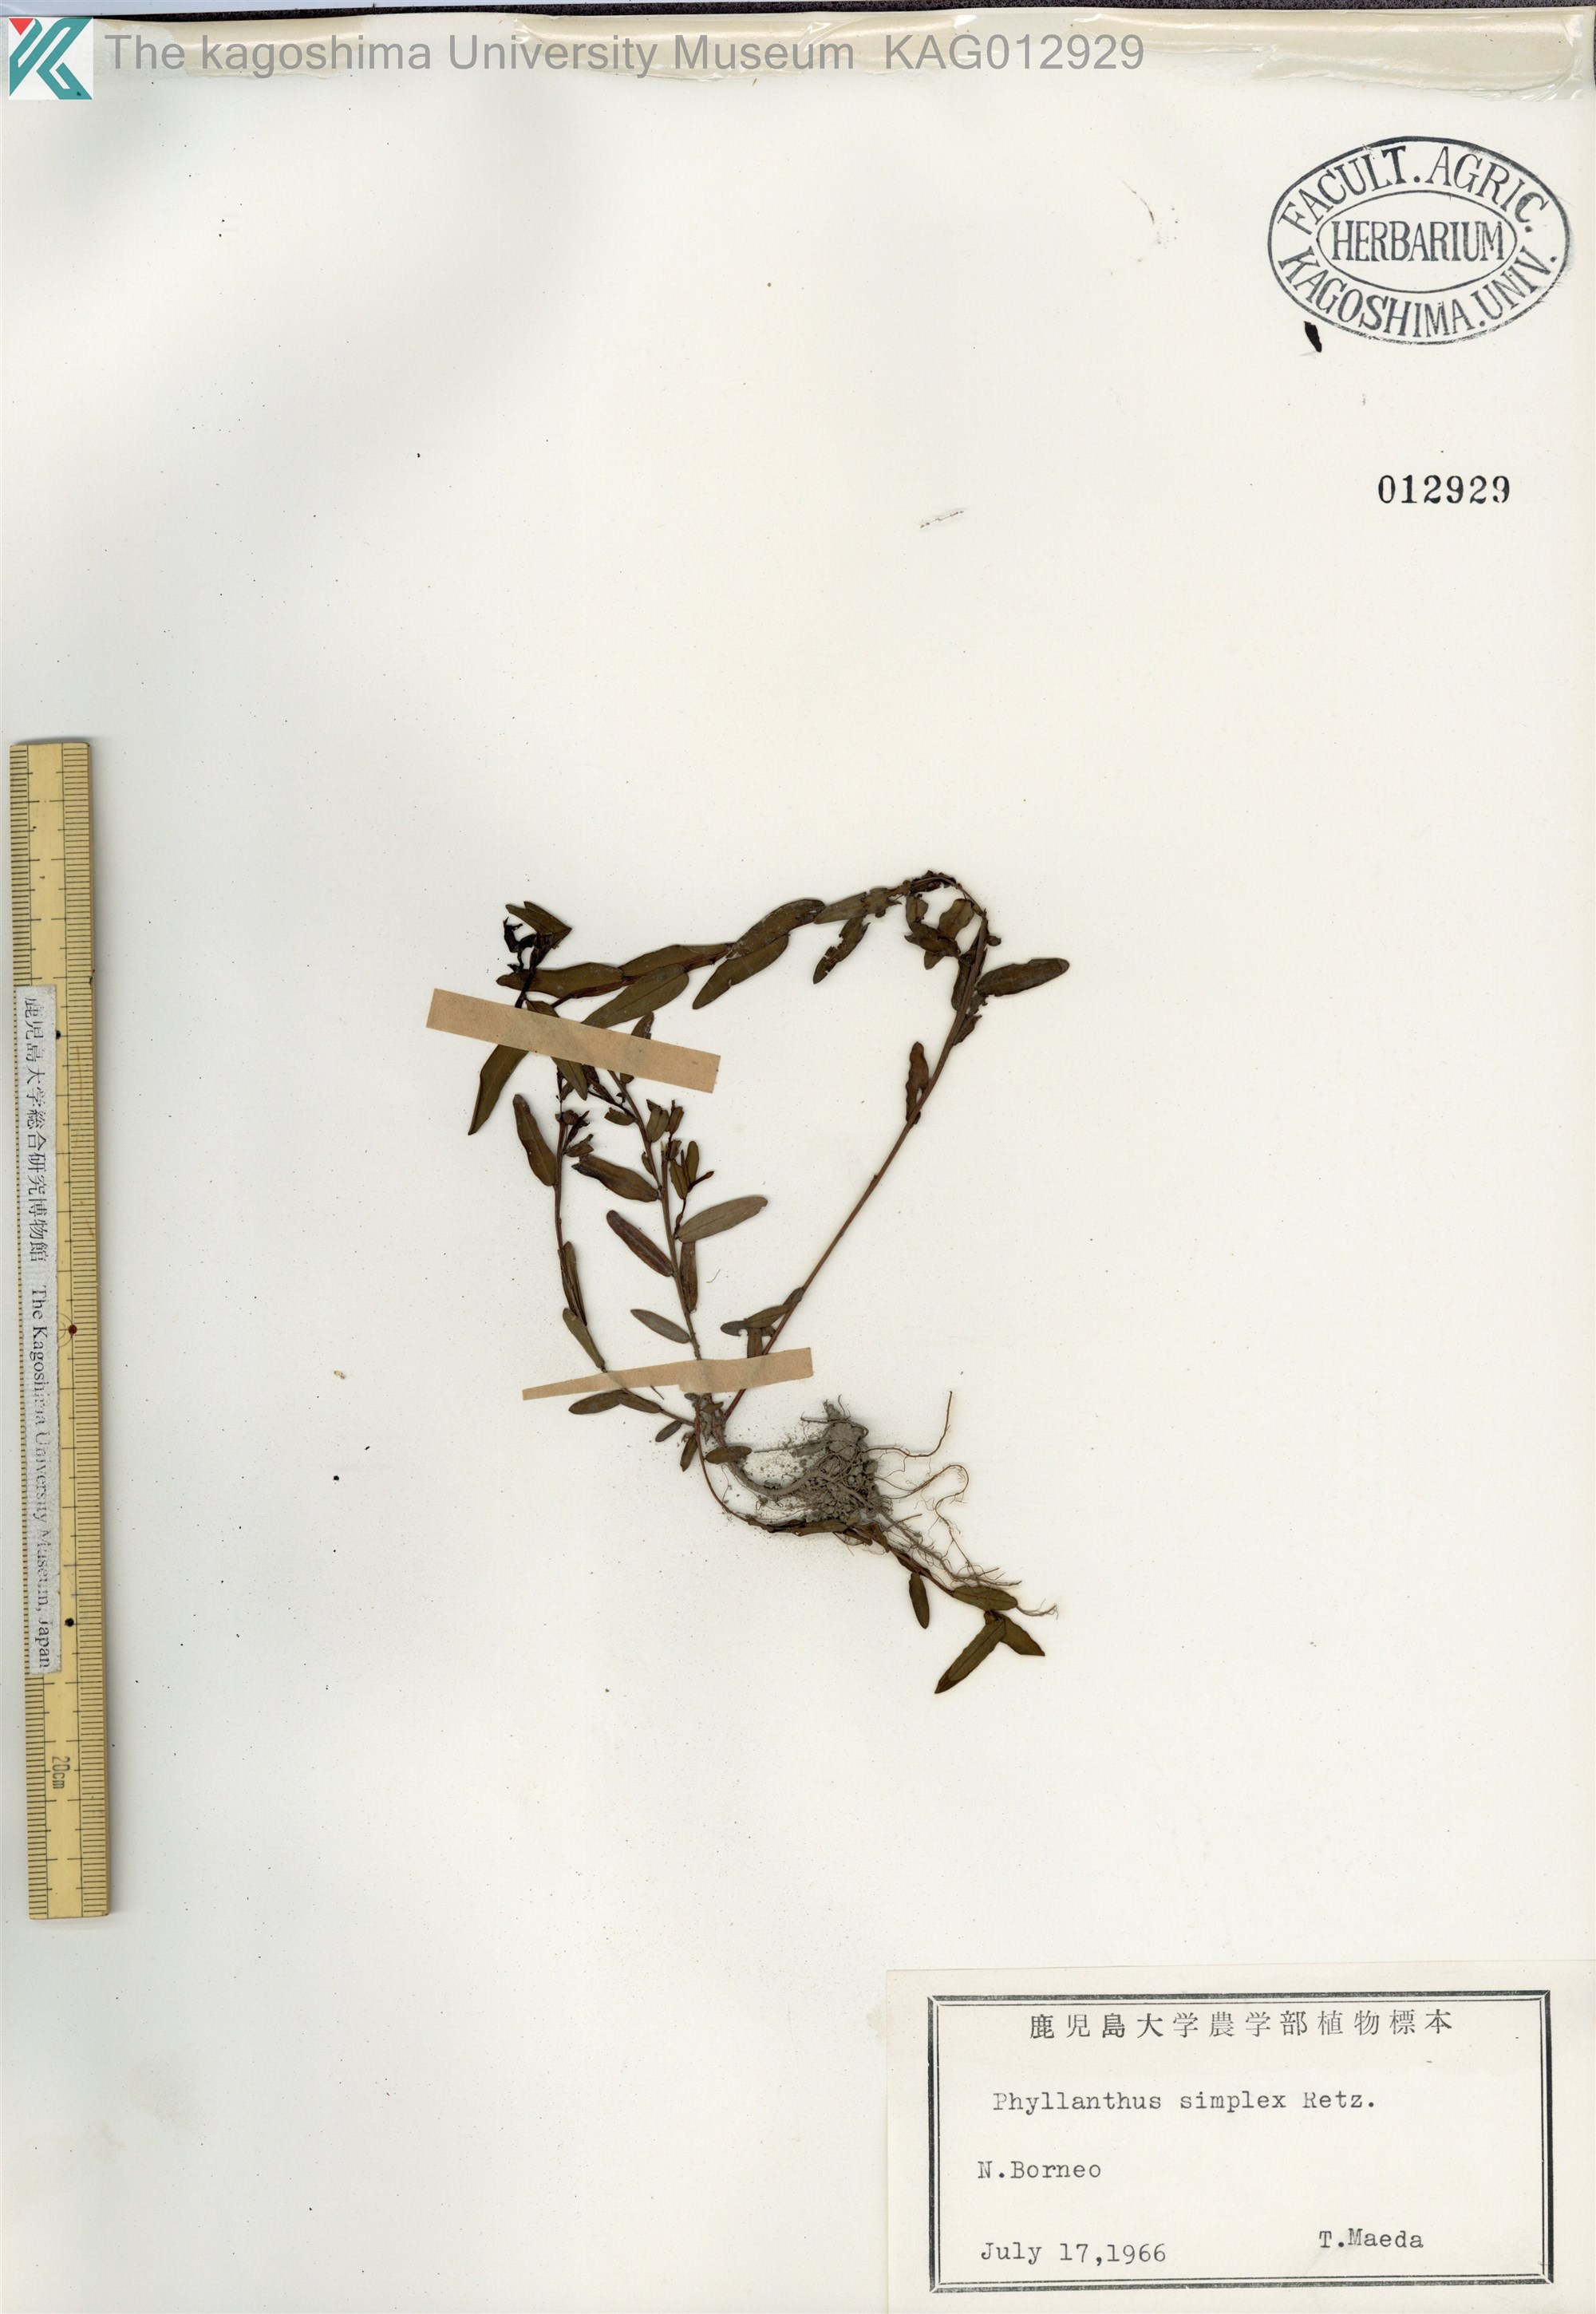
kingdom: Plantae
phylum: Tracheophyta
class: Magnoliopsida
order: Malpighiales
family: Phyllanthaceae
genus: Phyllanthus
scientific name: Phyllanthus virgatus
